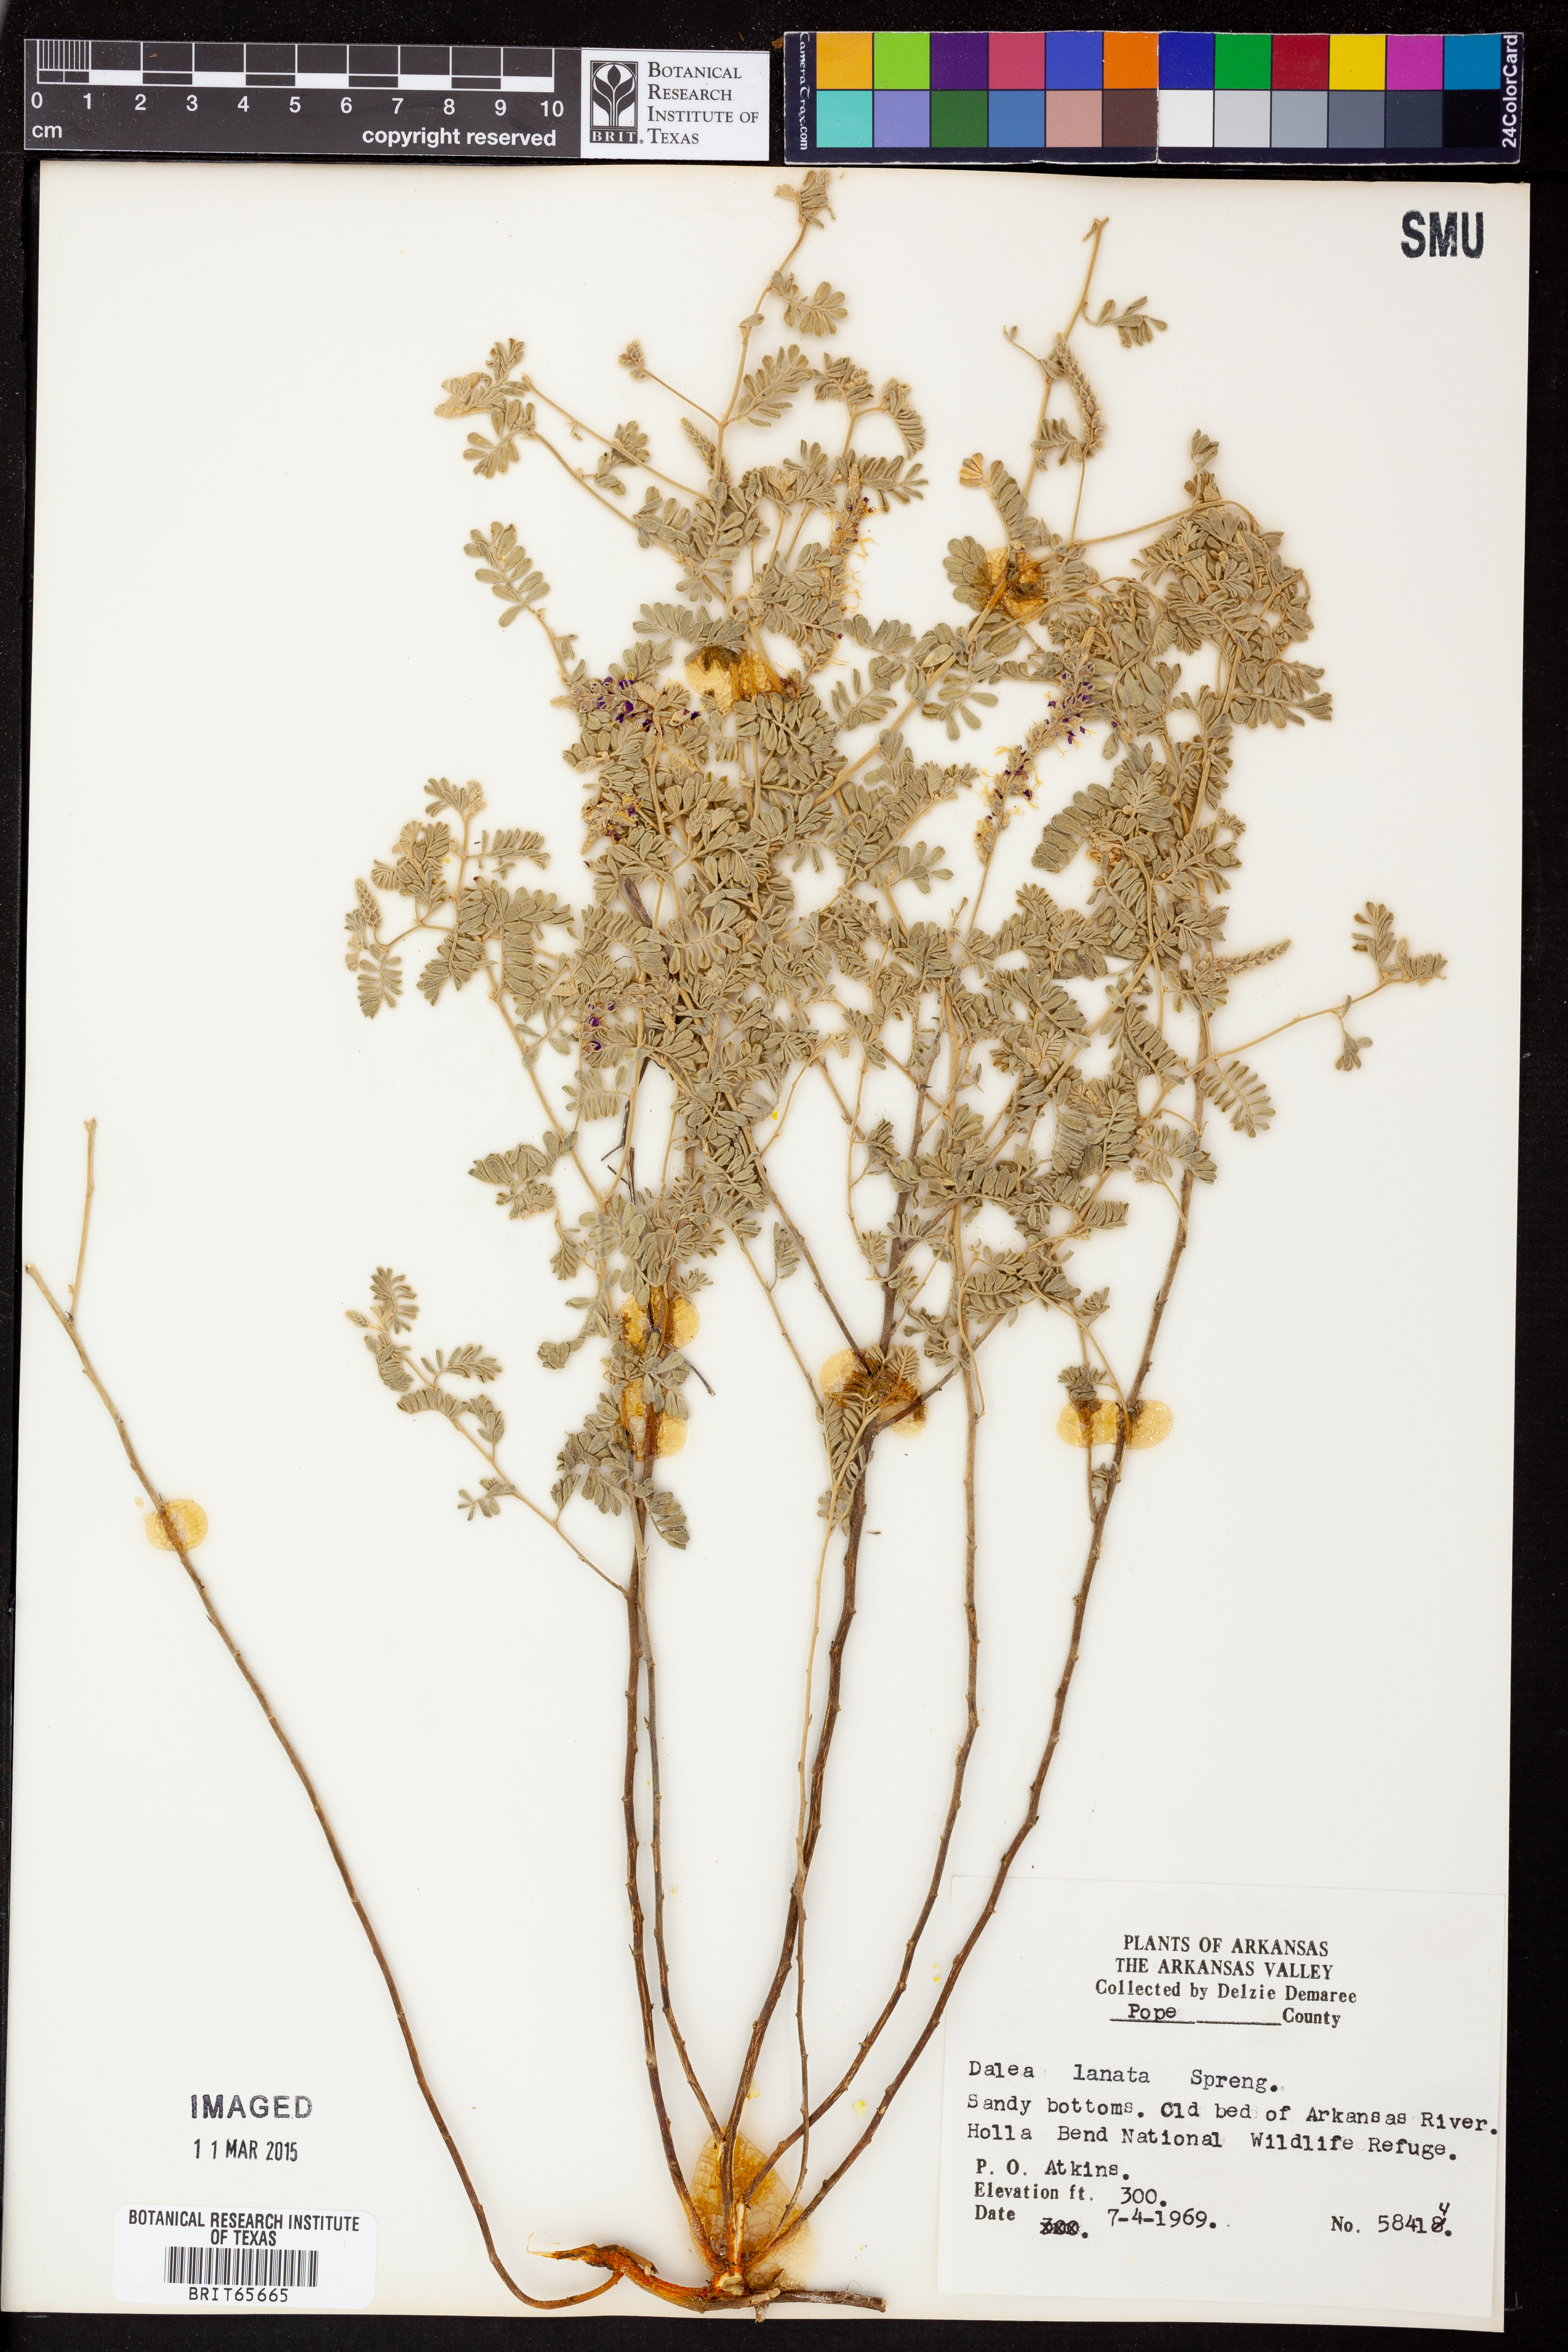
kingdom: Plantae
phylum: Tracheophyta
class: Magnoliopsida
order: Fabales
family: Fabaceae
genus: Dalea
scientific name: Dalea lanata
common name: Woolly dalea
